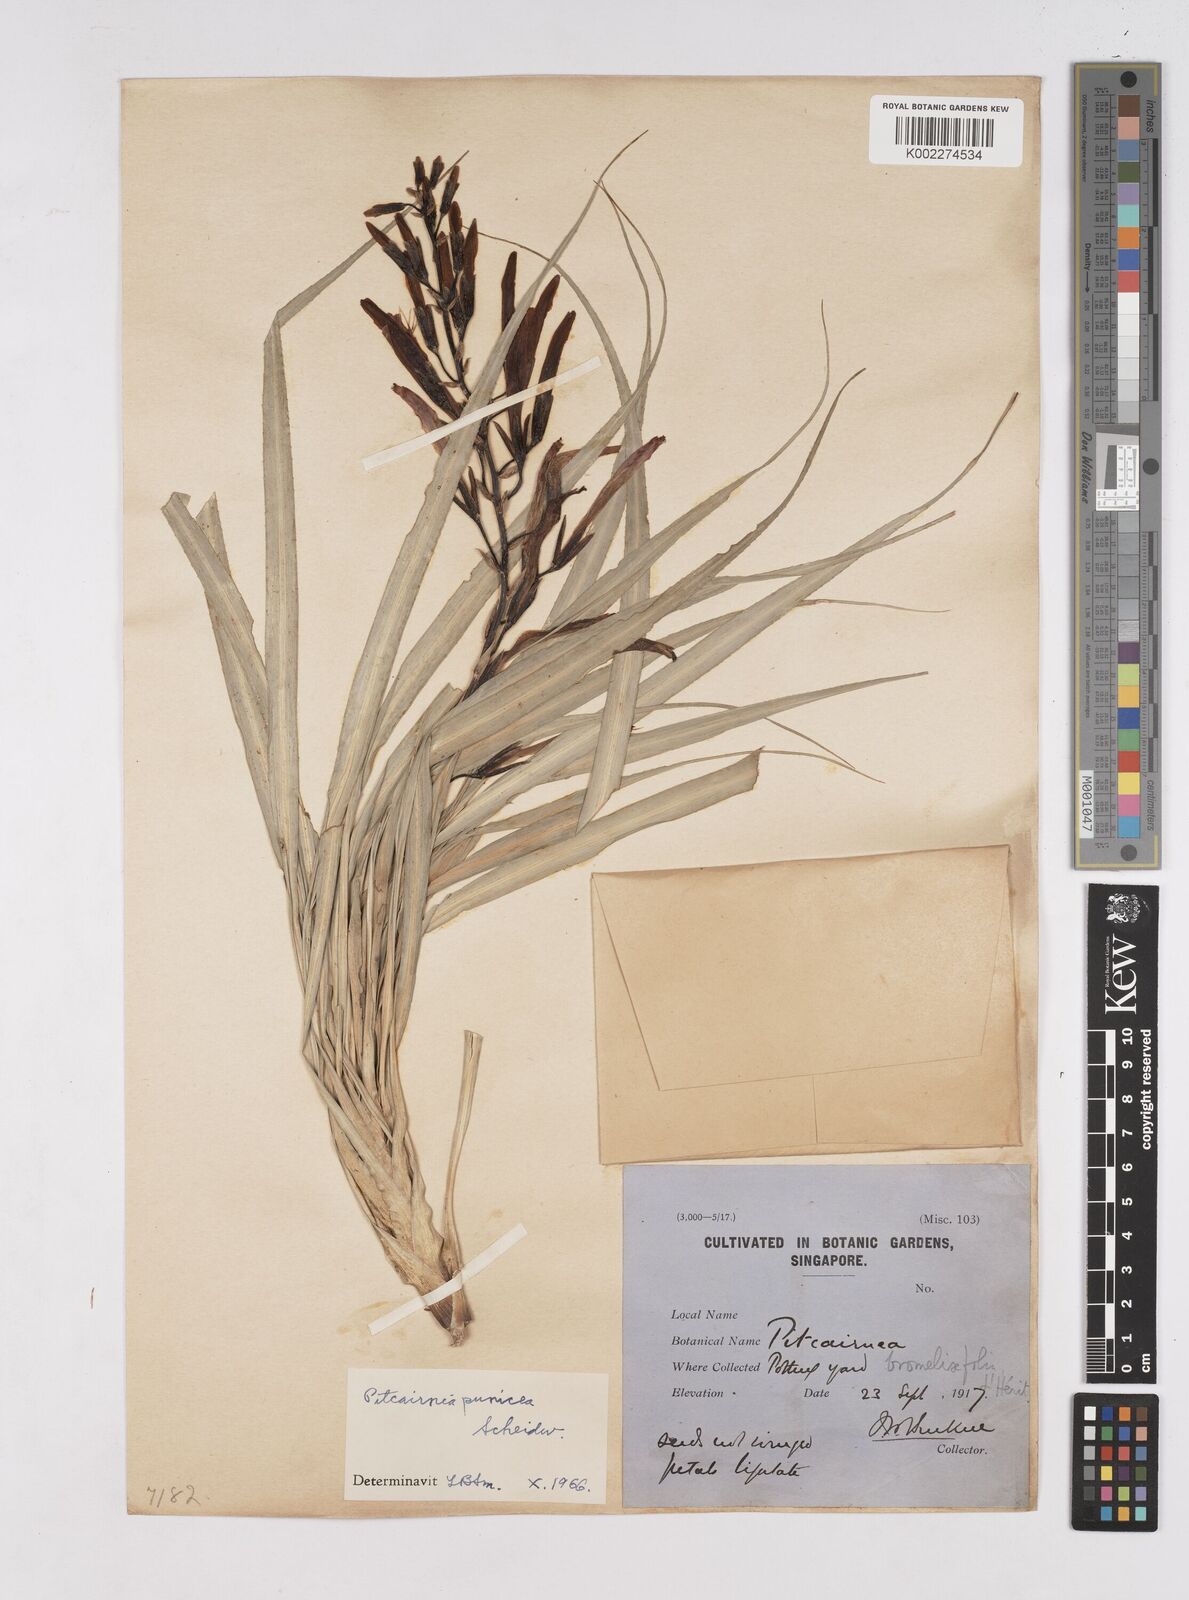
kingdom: Plantae
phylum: Tracheophyta
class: Liliopsida
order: Poales
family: Bromeliaceae
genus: Pitcairnia
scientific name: Pitcairnia punicea
